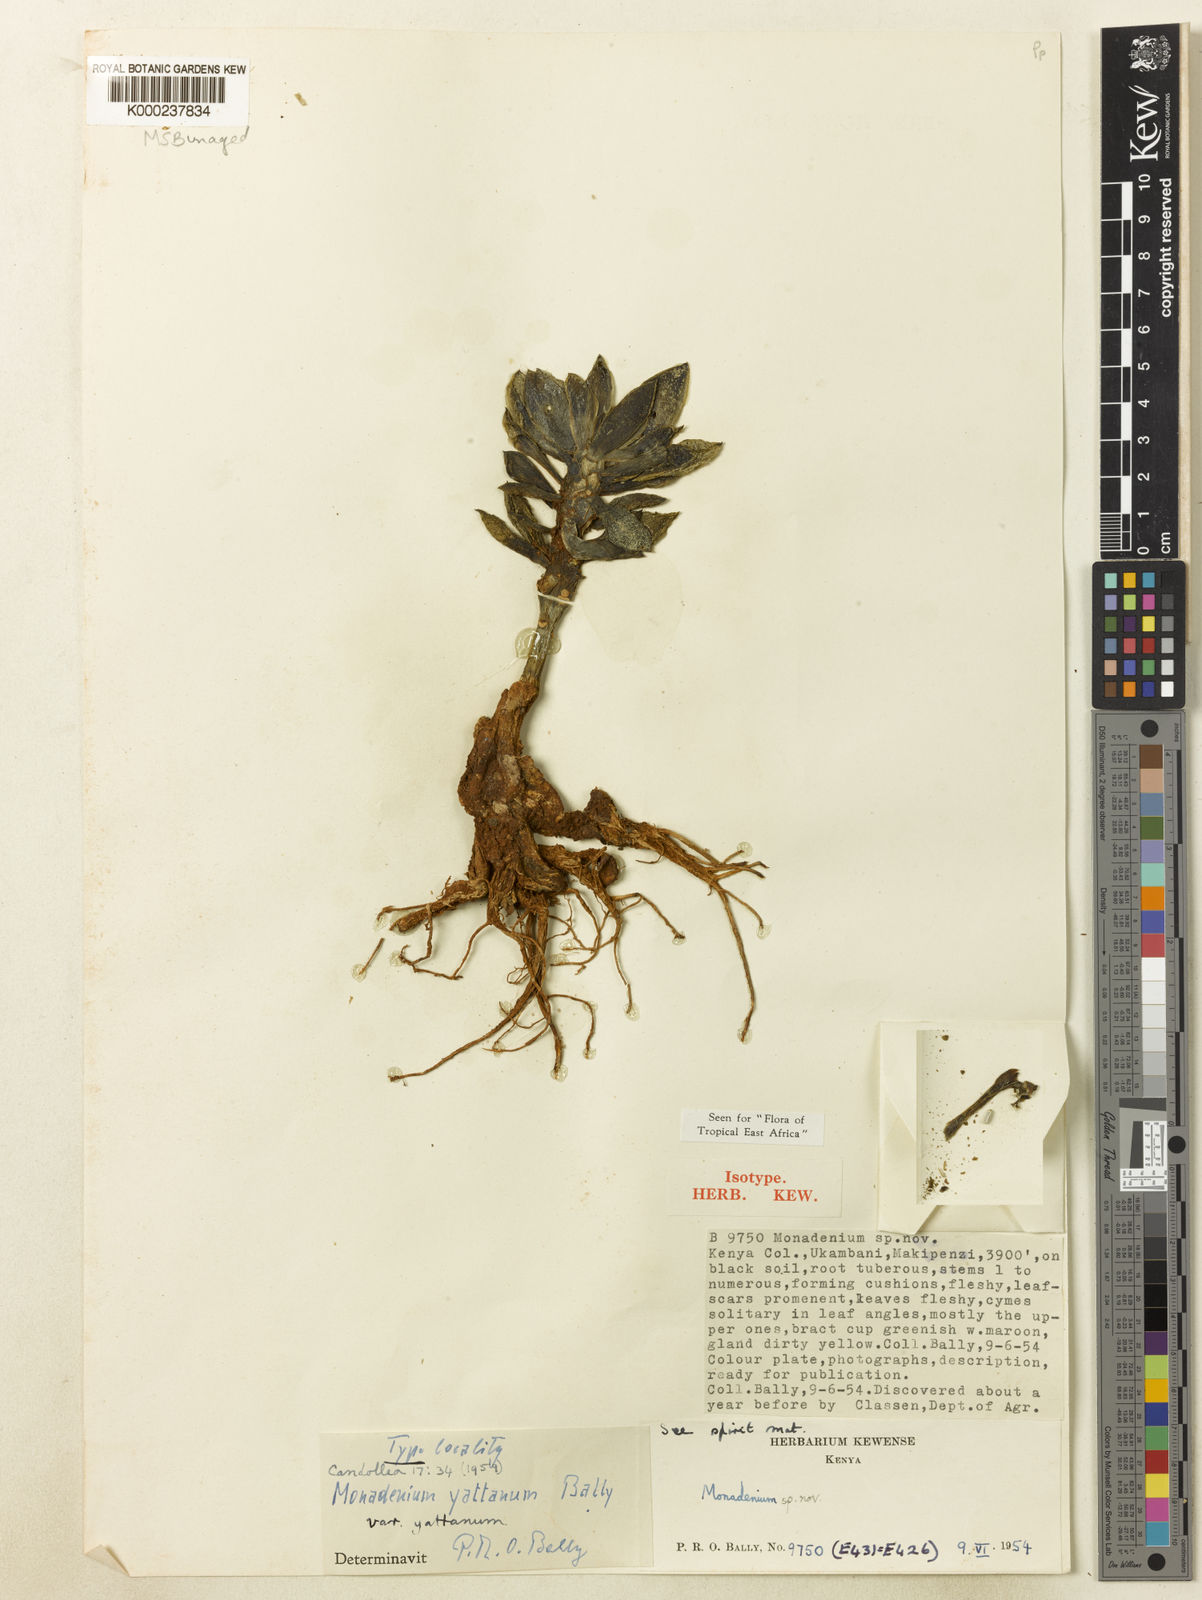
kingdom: Plantae
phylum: Tracheophyta
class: Magnoliopsida
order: Malpighiales
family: Euphorbiaceae
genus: Euphorbia
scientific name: Euphorbia yattana
